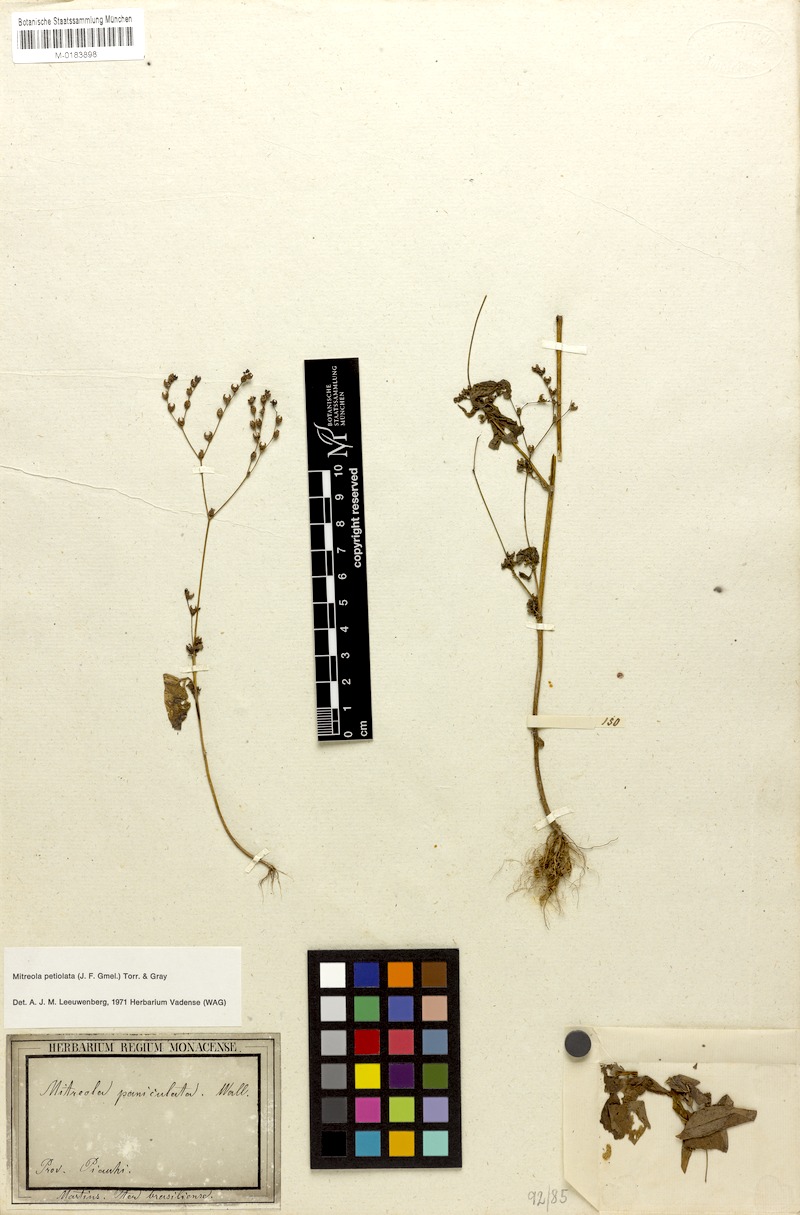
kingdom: Plantae
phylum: Tracheophyta
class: Magnoliopsida
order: Gentianales
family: Loganiaceae
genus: Mitreola
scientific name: Mitreola petiolata
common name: Lax hornpod
